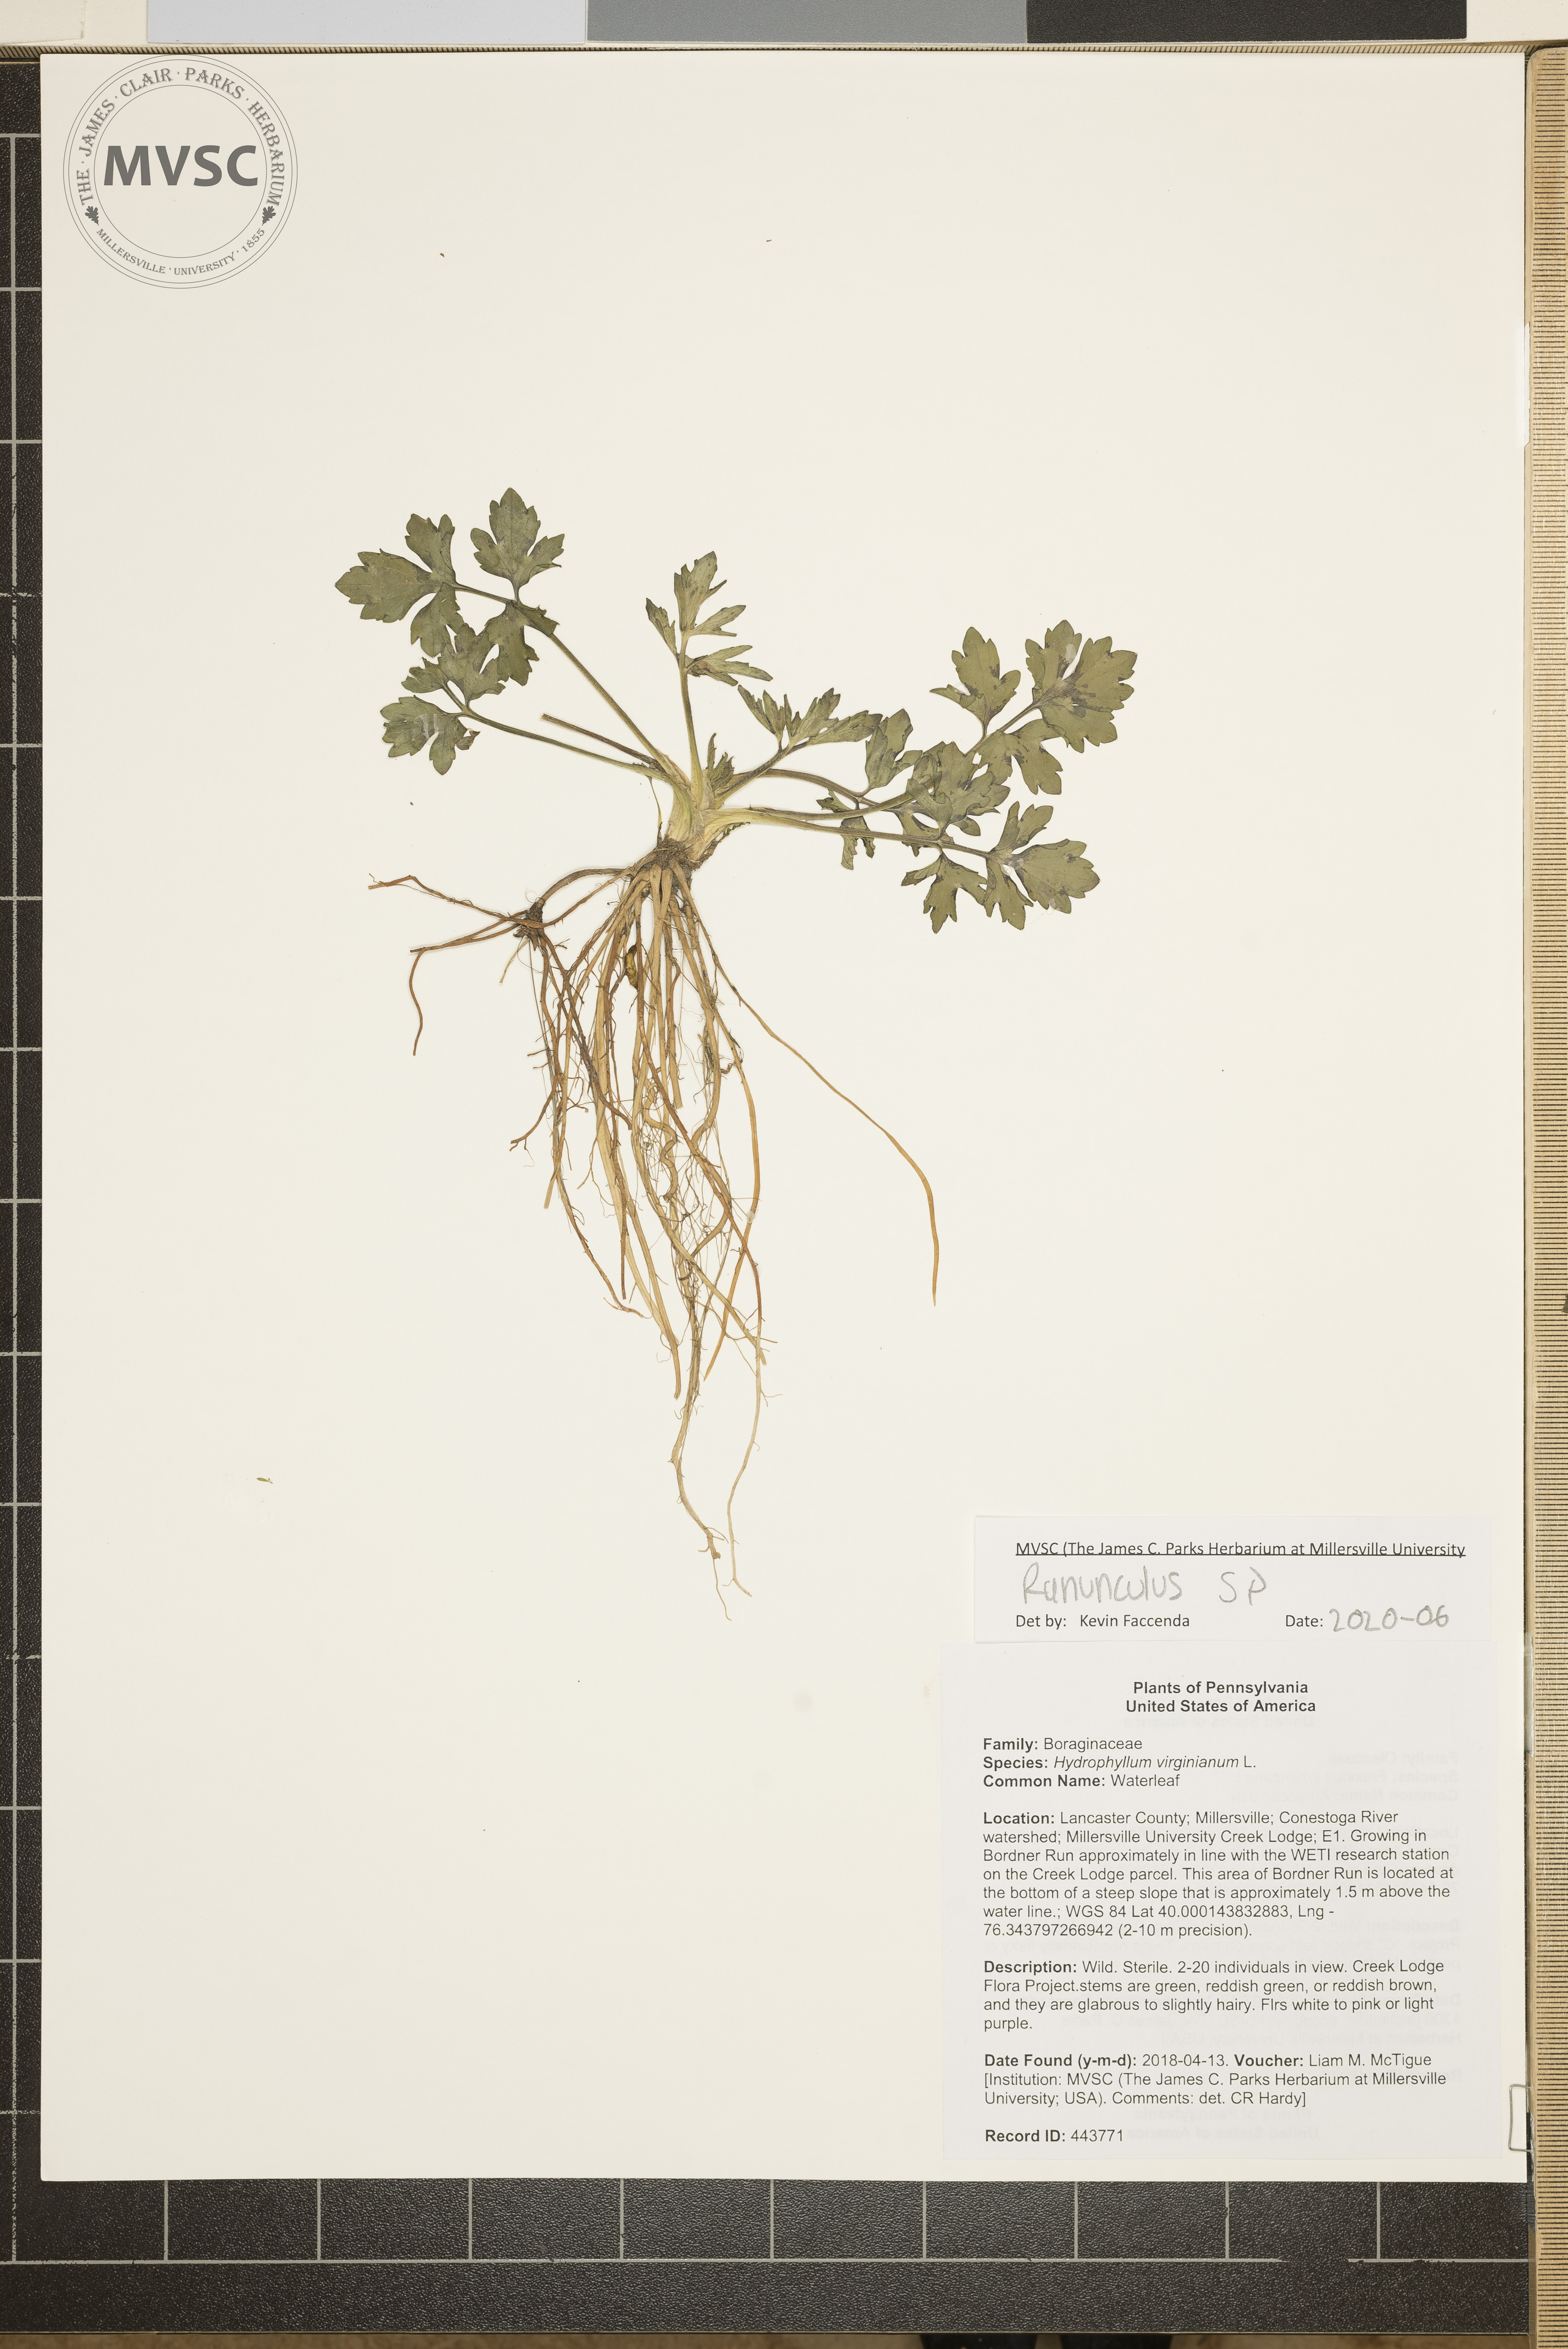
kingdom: Plantae
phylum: Tracheophyta
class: Magnoliopsida
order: Boraginales
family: Hydrophyllaceae
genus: Hydrophyllum
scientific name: Hydrophyllum virginianum
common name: Waterleaf
